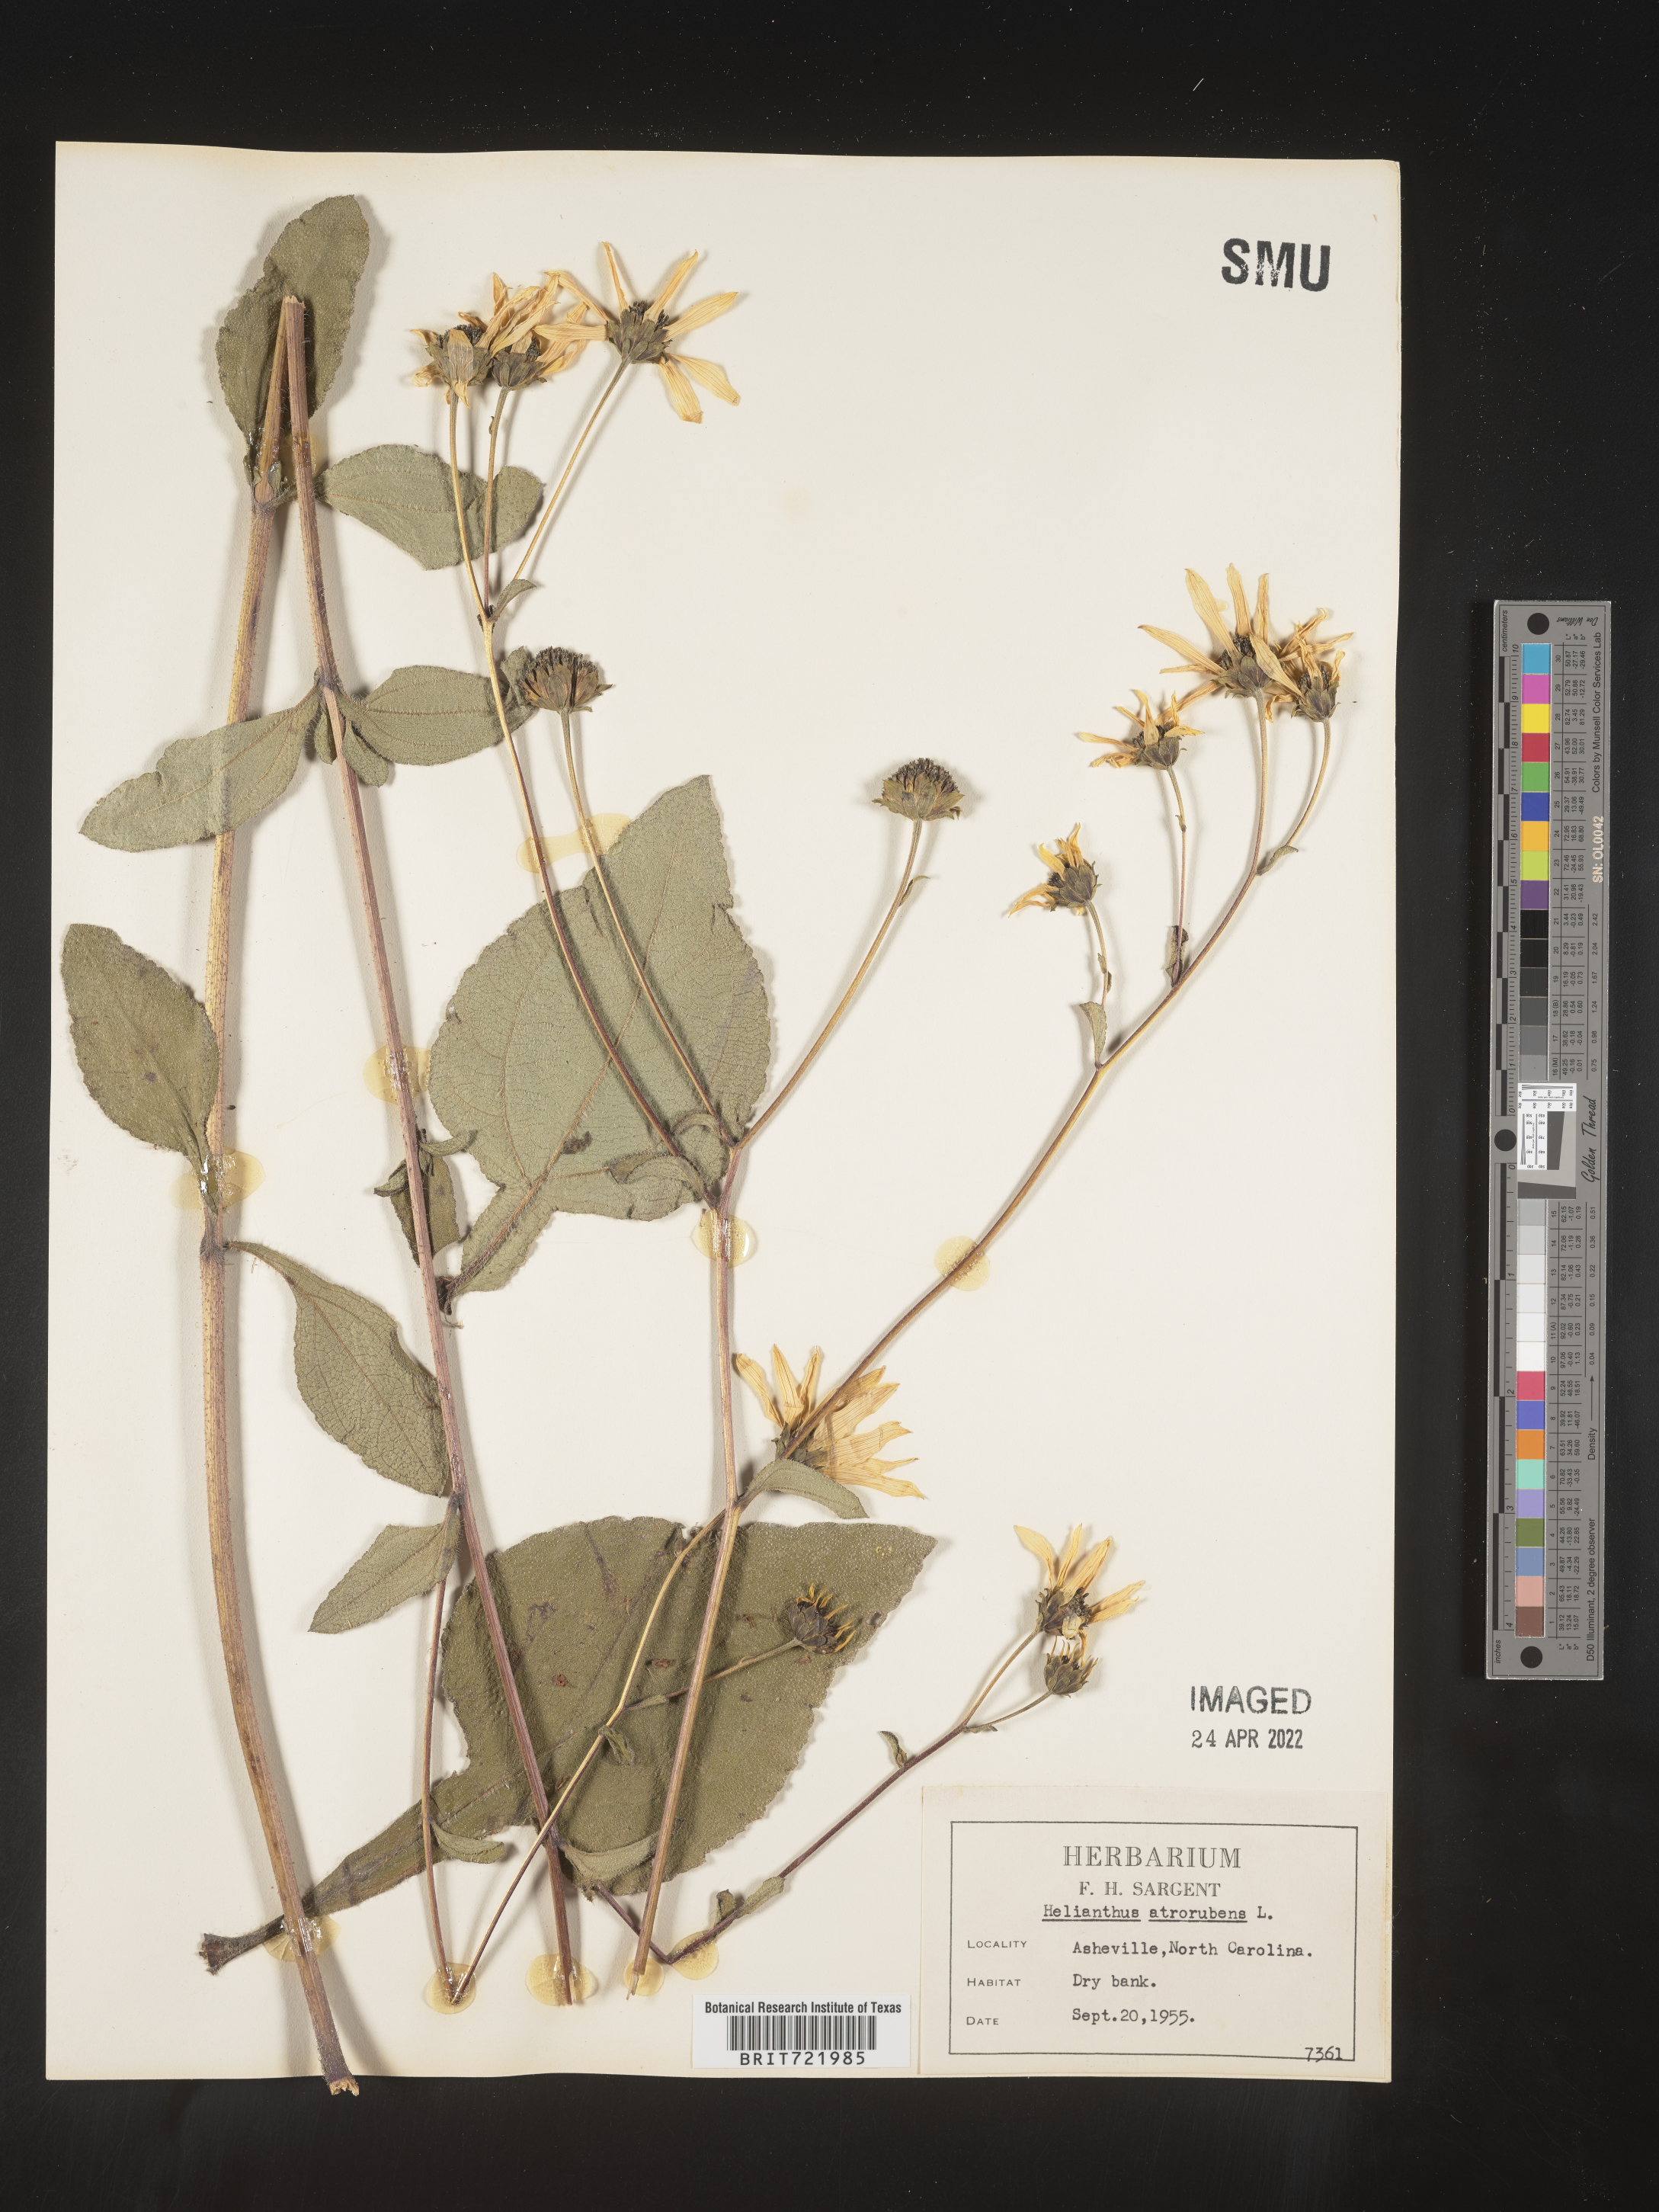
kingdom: Plantae
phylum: Tracheophyta
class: Magnoliopsida
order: Asterales
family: Asteraceae
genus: Helianthus
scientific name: Helianthus atrorubens
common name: Dark-eyed sunflower
